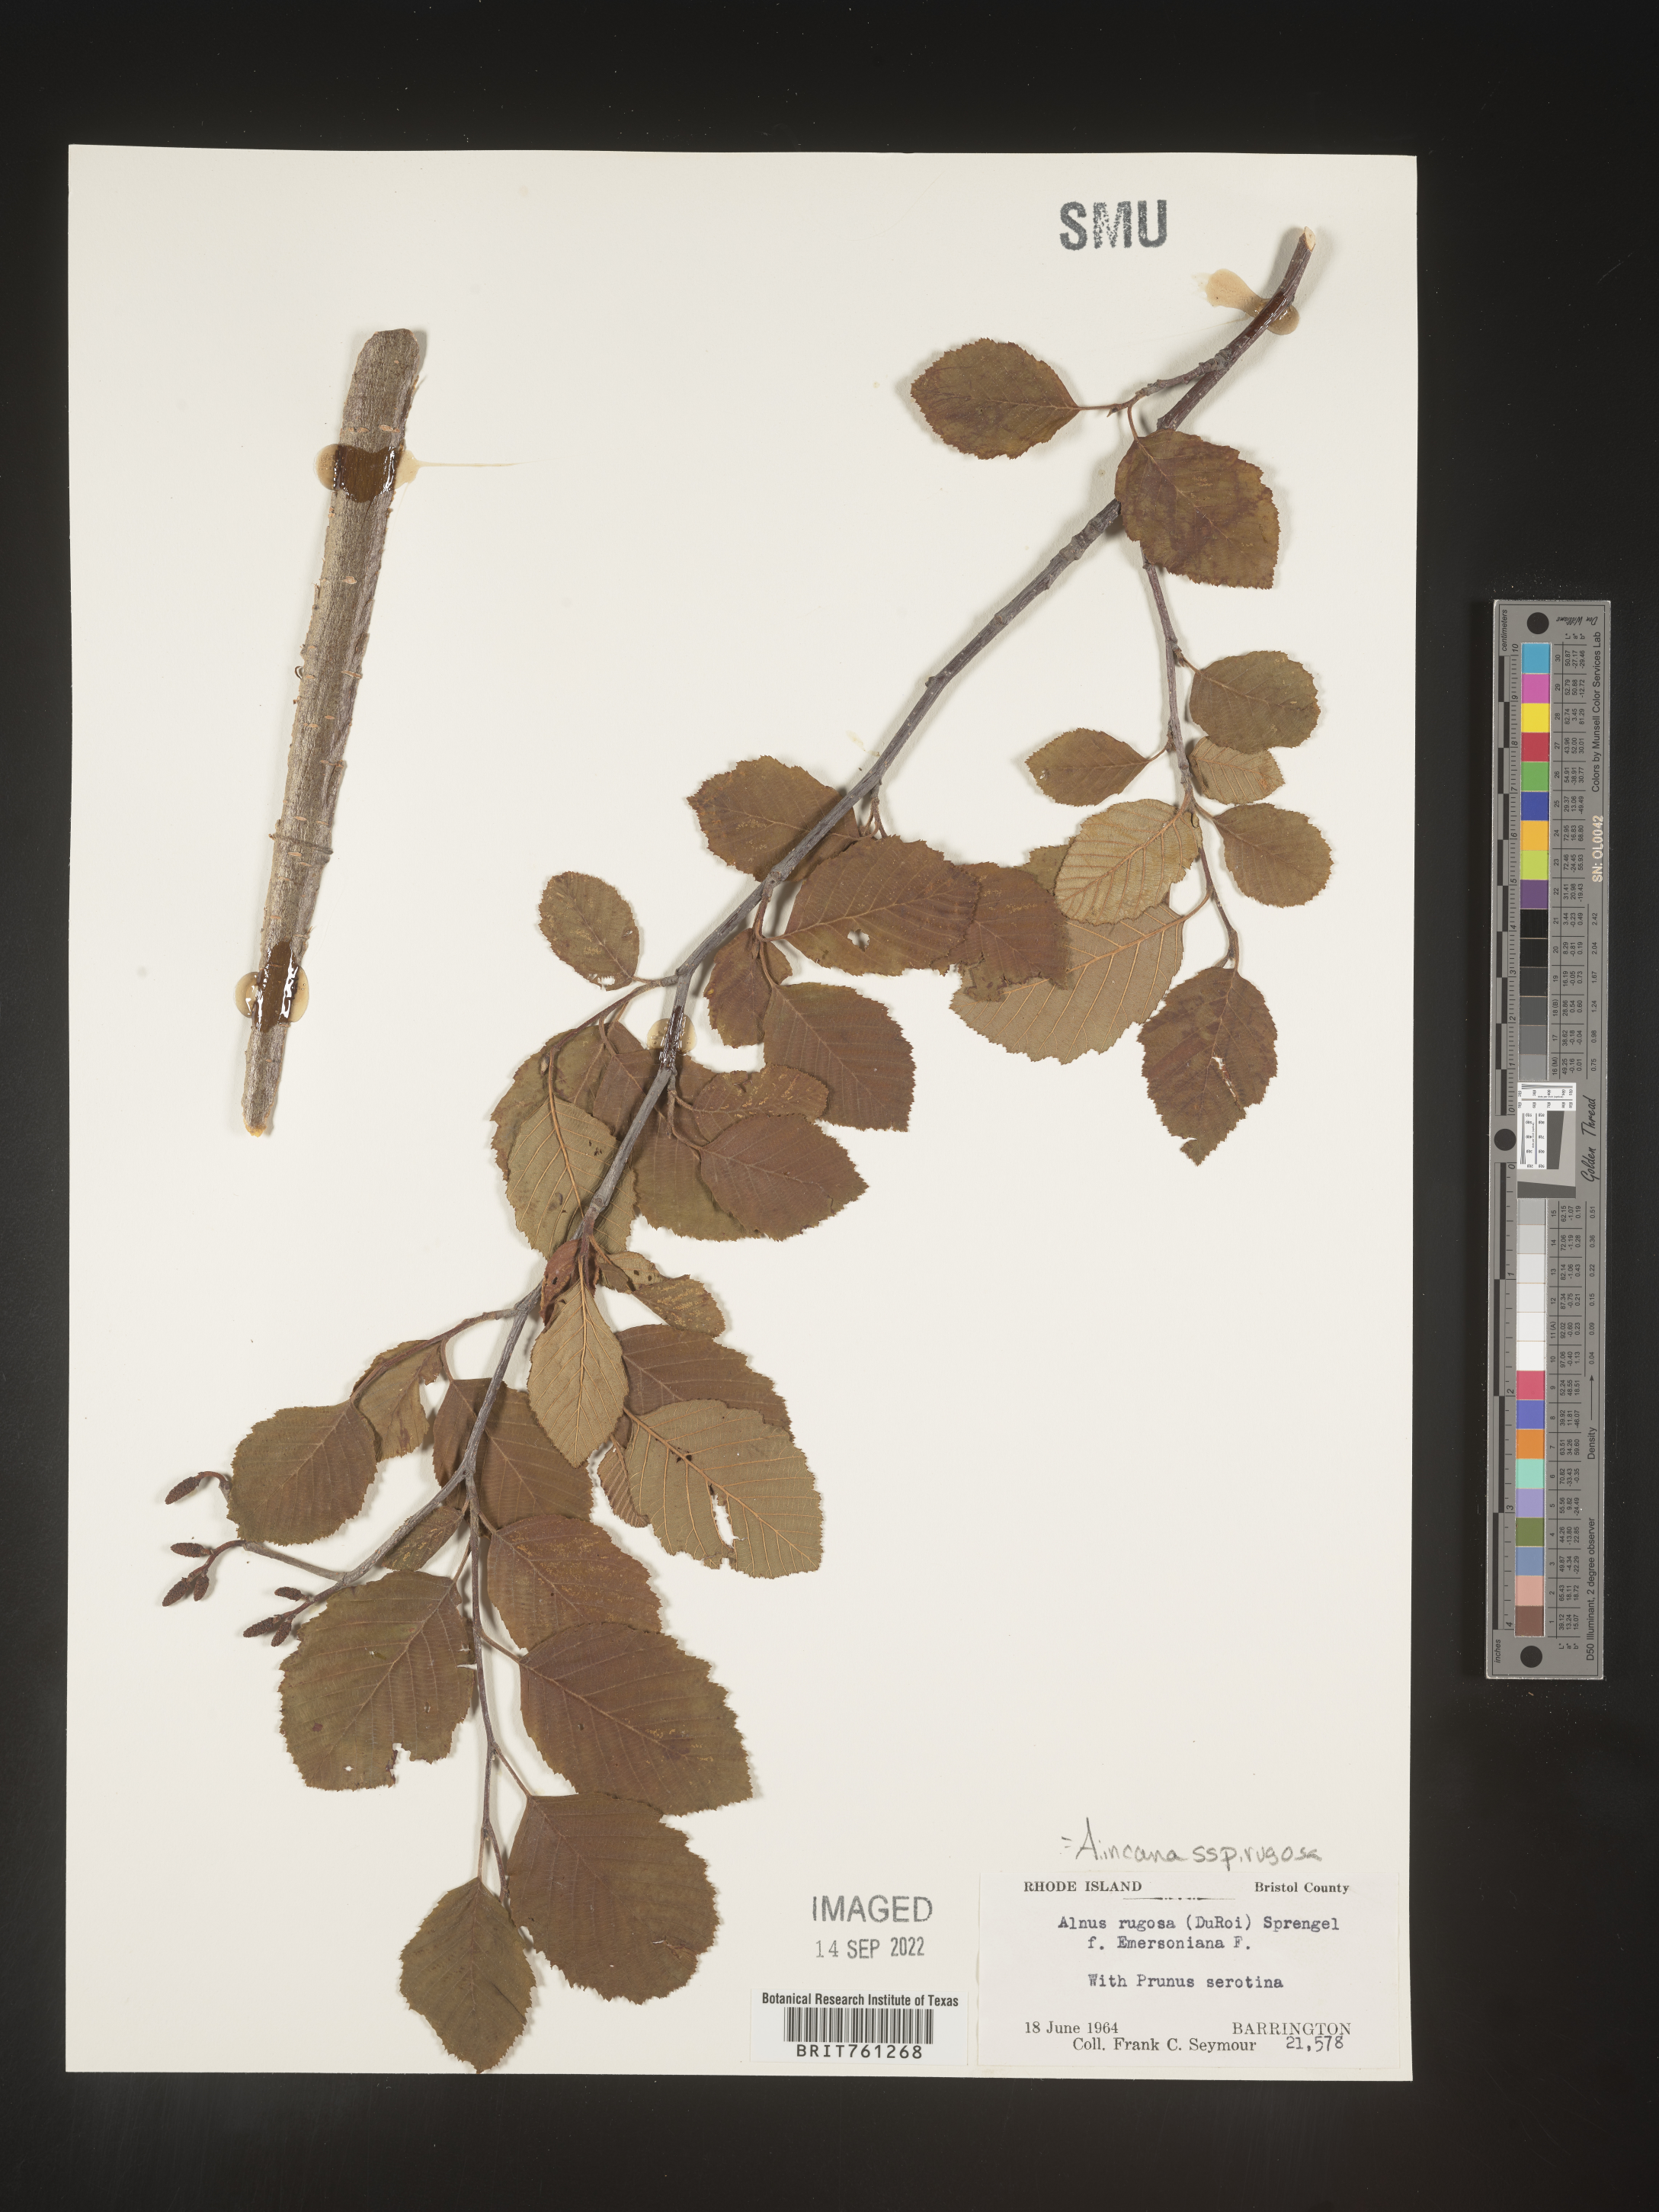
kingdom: Plantae
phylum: Tracheophyta
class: Magnoliopsida
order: Fagales
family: Betulaceae
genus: Alnus
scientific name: Alnus incana
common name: Grey alder
